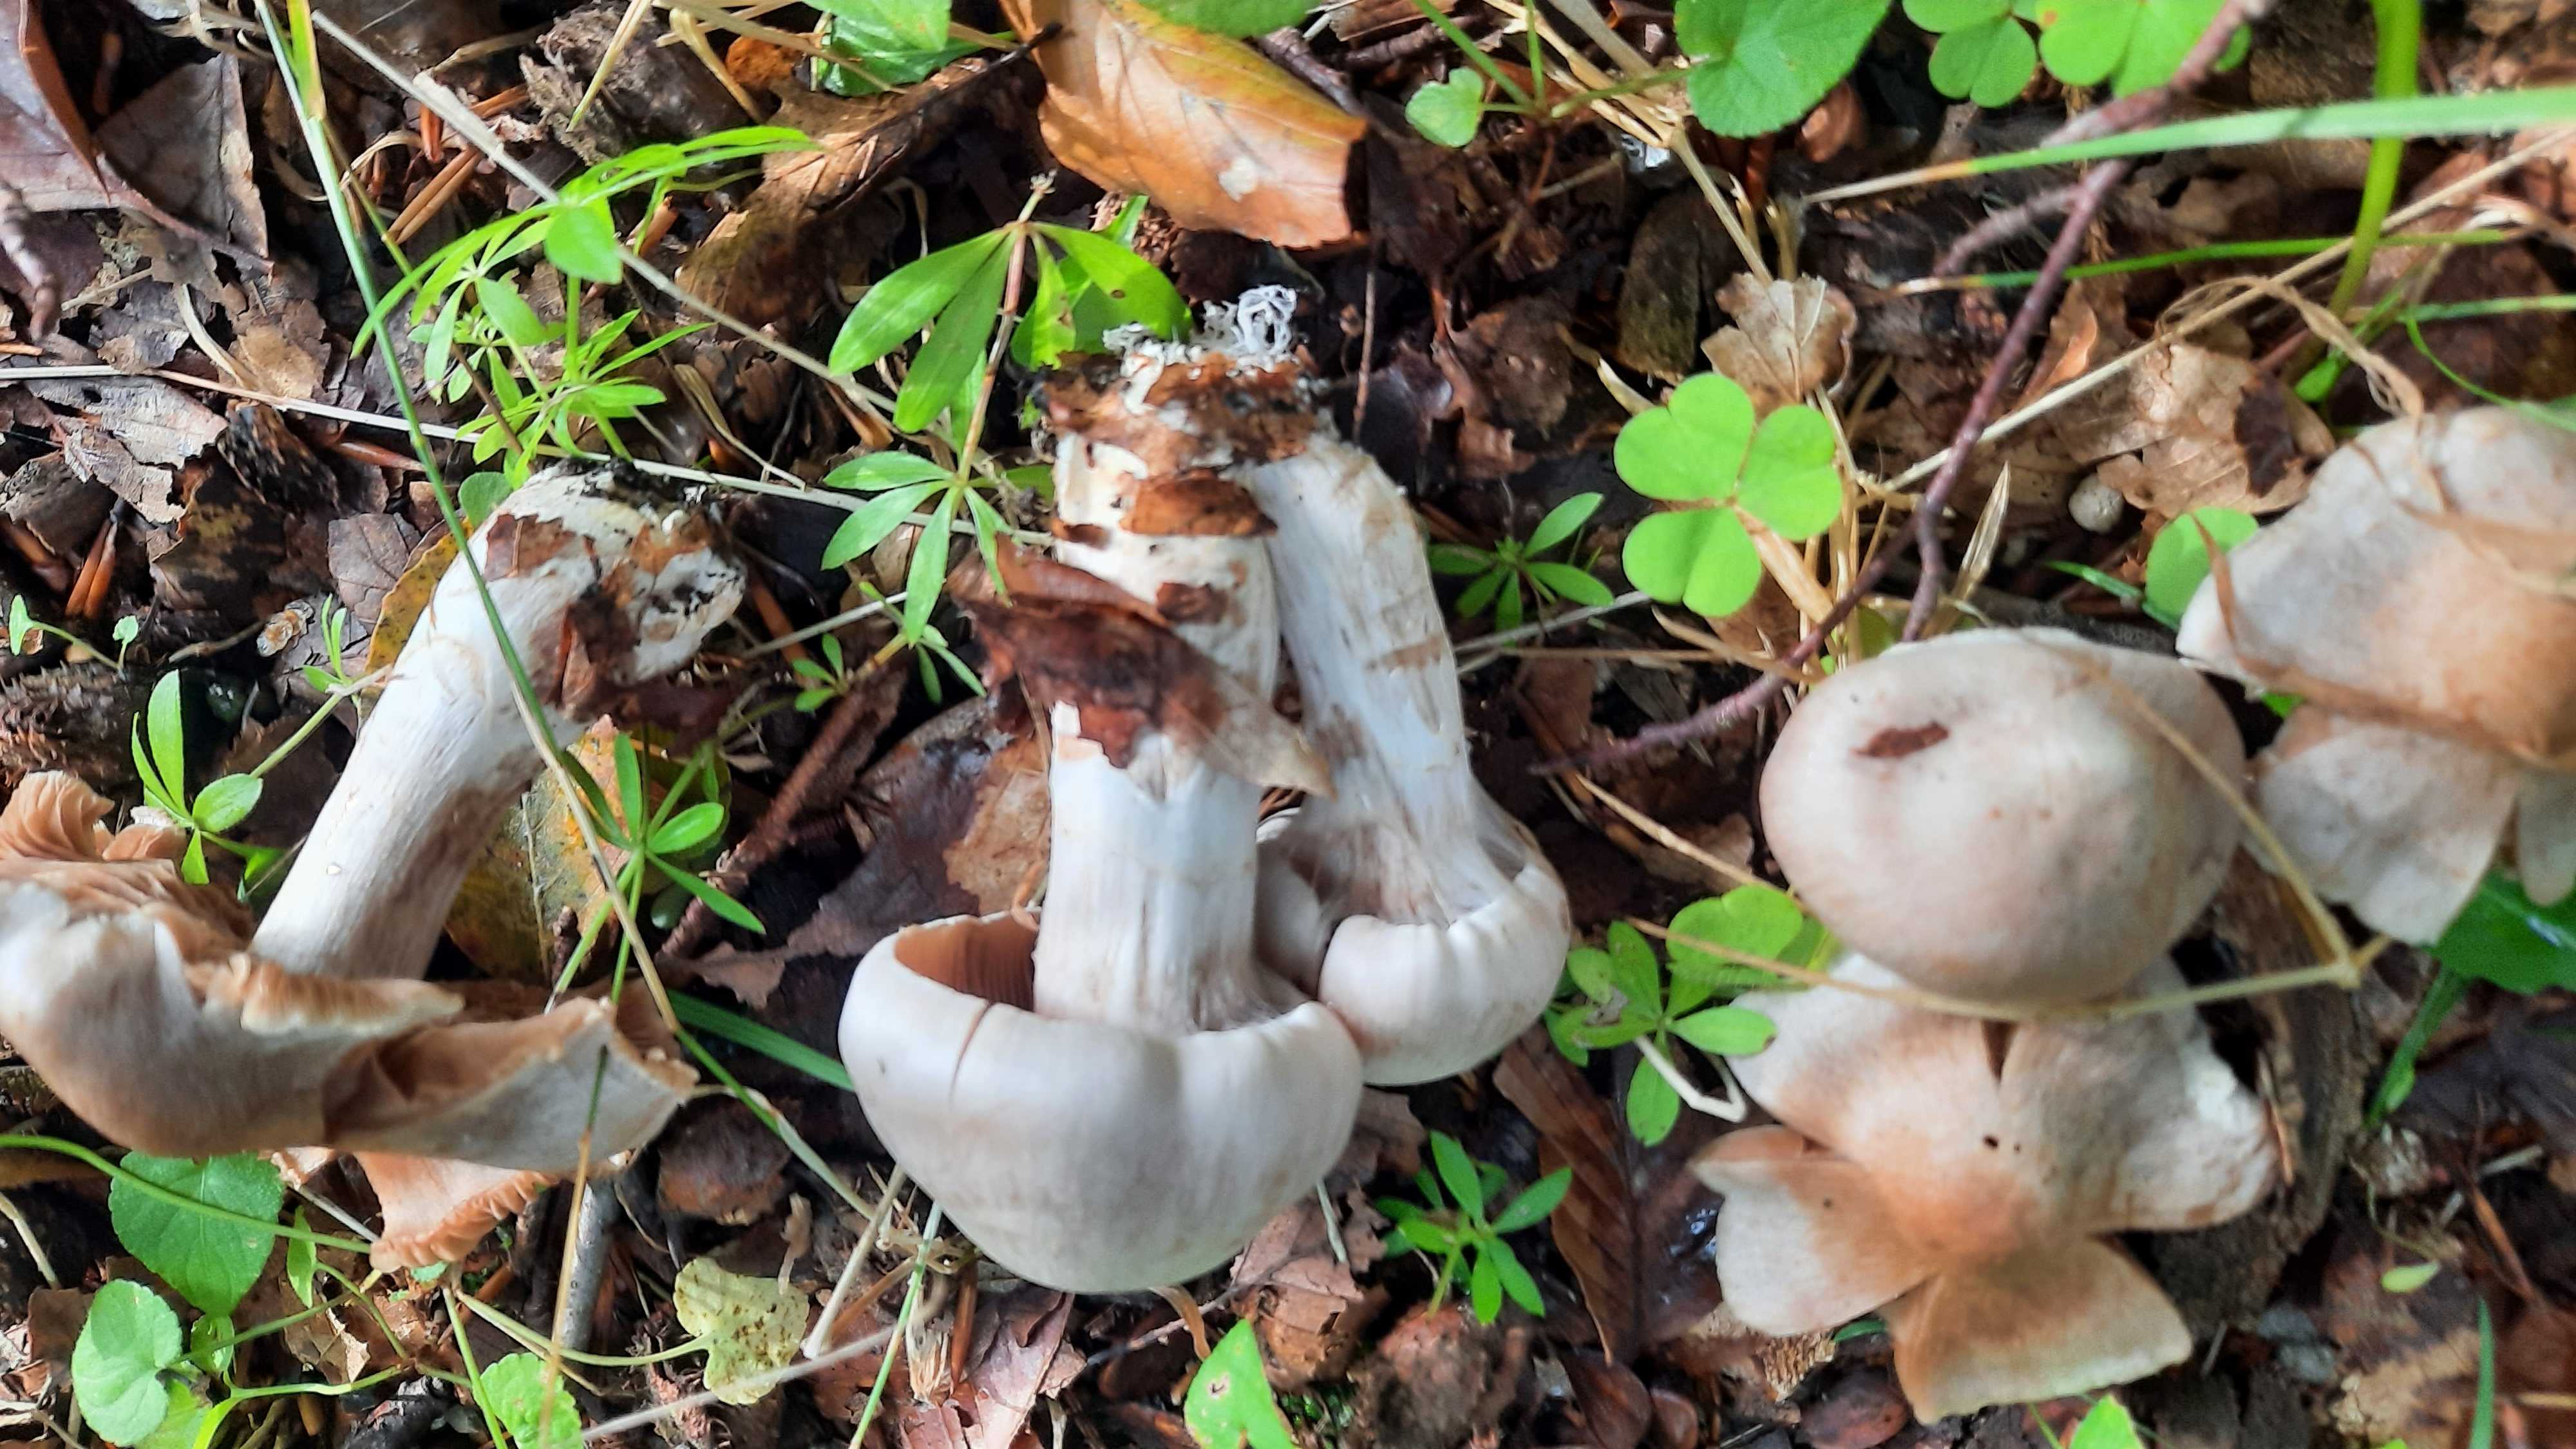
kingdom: Fungi
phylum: Basidiomycota
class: Agaricomycetes
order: Agaricales
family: Cortinariaceae
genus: Cortinarius
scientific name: Cortinarius
